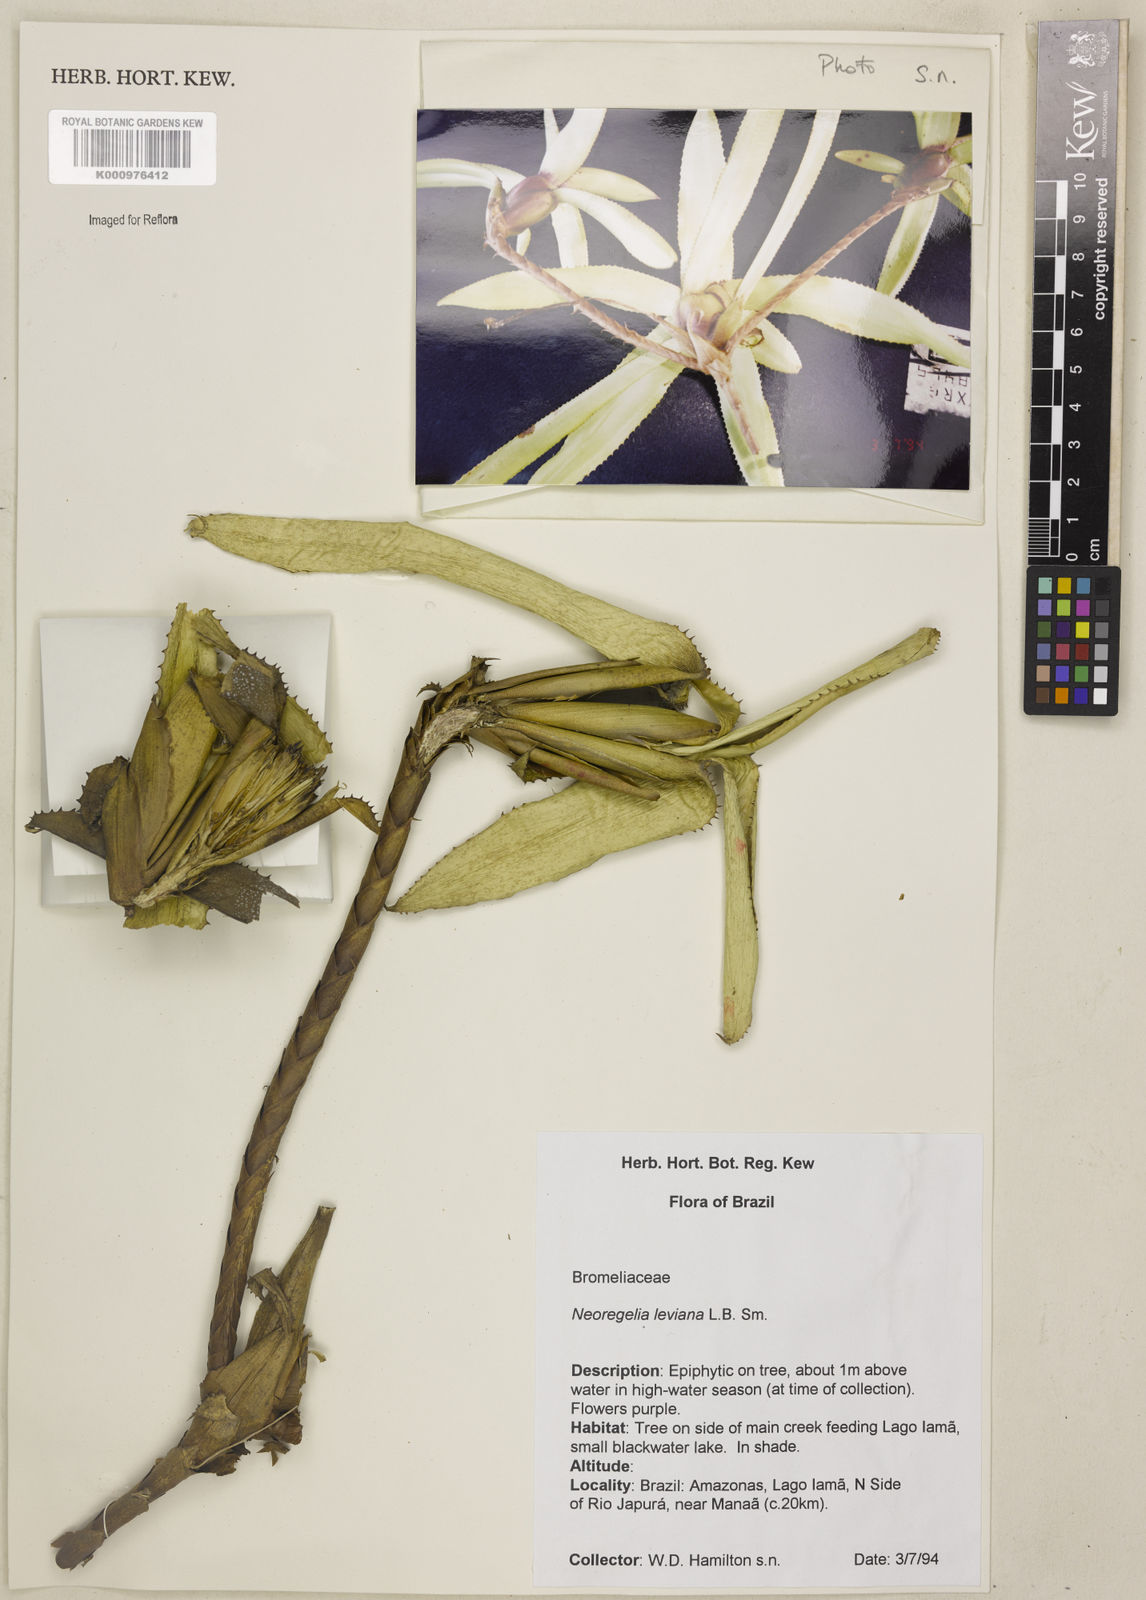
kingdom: Plantae
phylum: Tracheophyta
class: Liliopsida
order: Poales
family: Bromeliaceae
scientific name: Bromeliaceae
